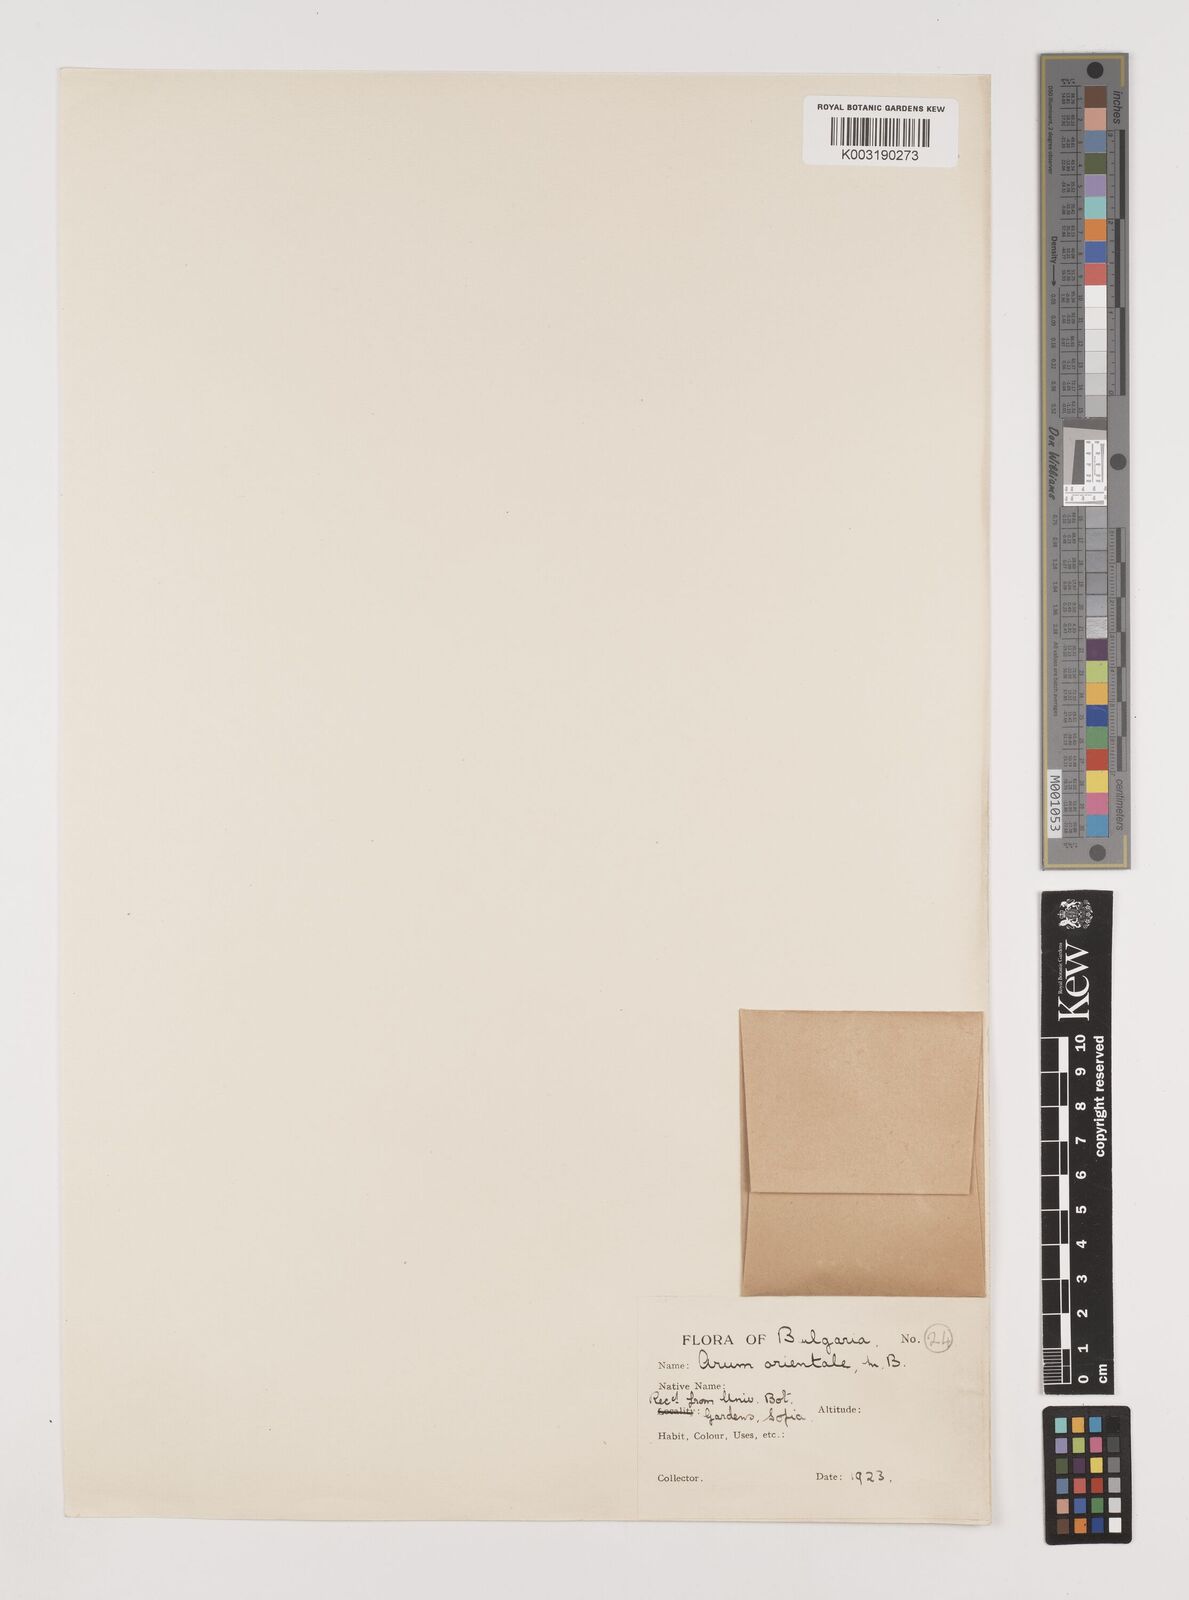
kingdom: Plantae
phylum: Tracheophyta
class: Liliopsida
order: Alismatales
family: Araceae
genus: Arum
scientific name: Arum orientale
